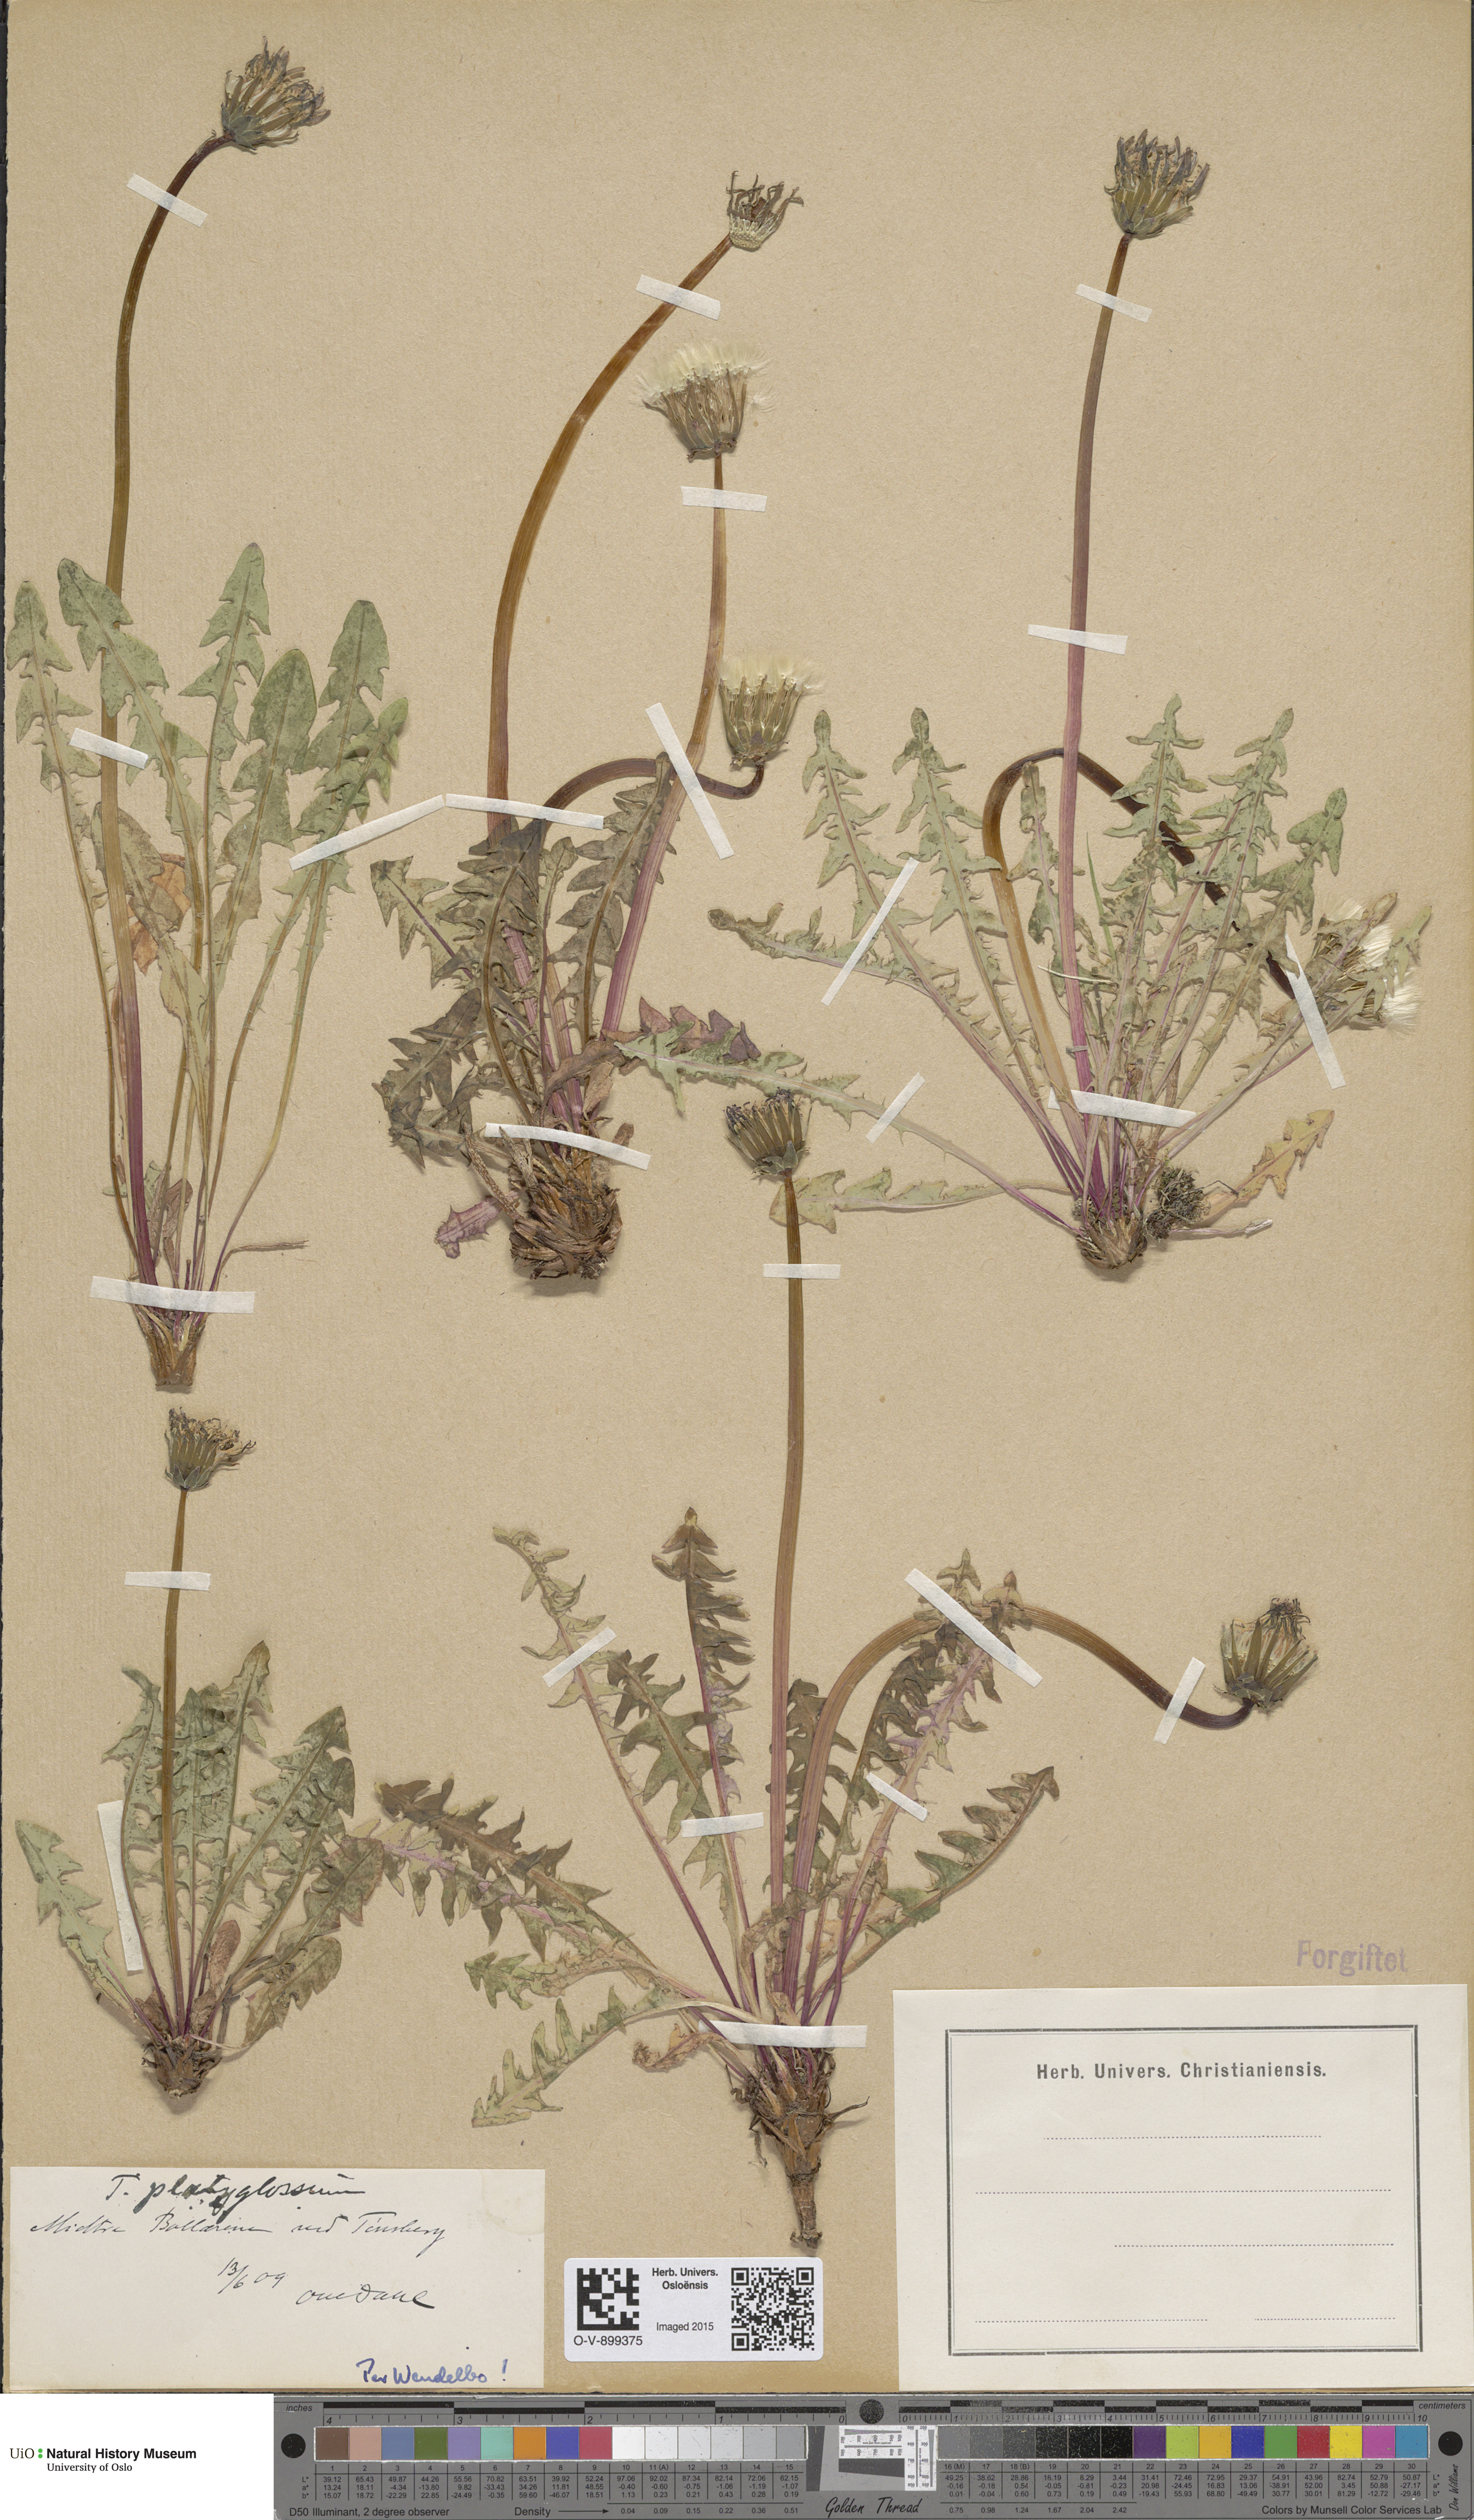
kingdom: Plantae
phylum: Tracheophyta
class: Magnoliopsida
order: Asterales
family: Asteraceae
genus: Taraxacum
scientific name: Taraxacum platyglossum
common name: Tongue-leaved dandelion
